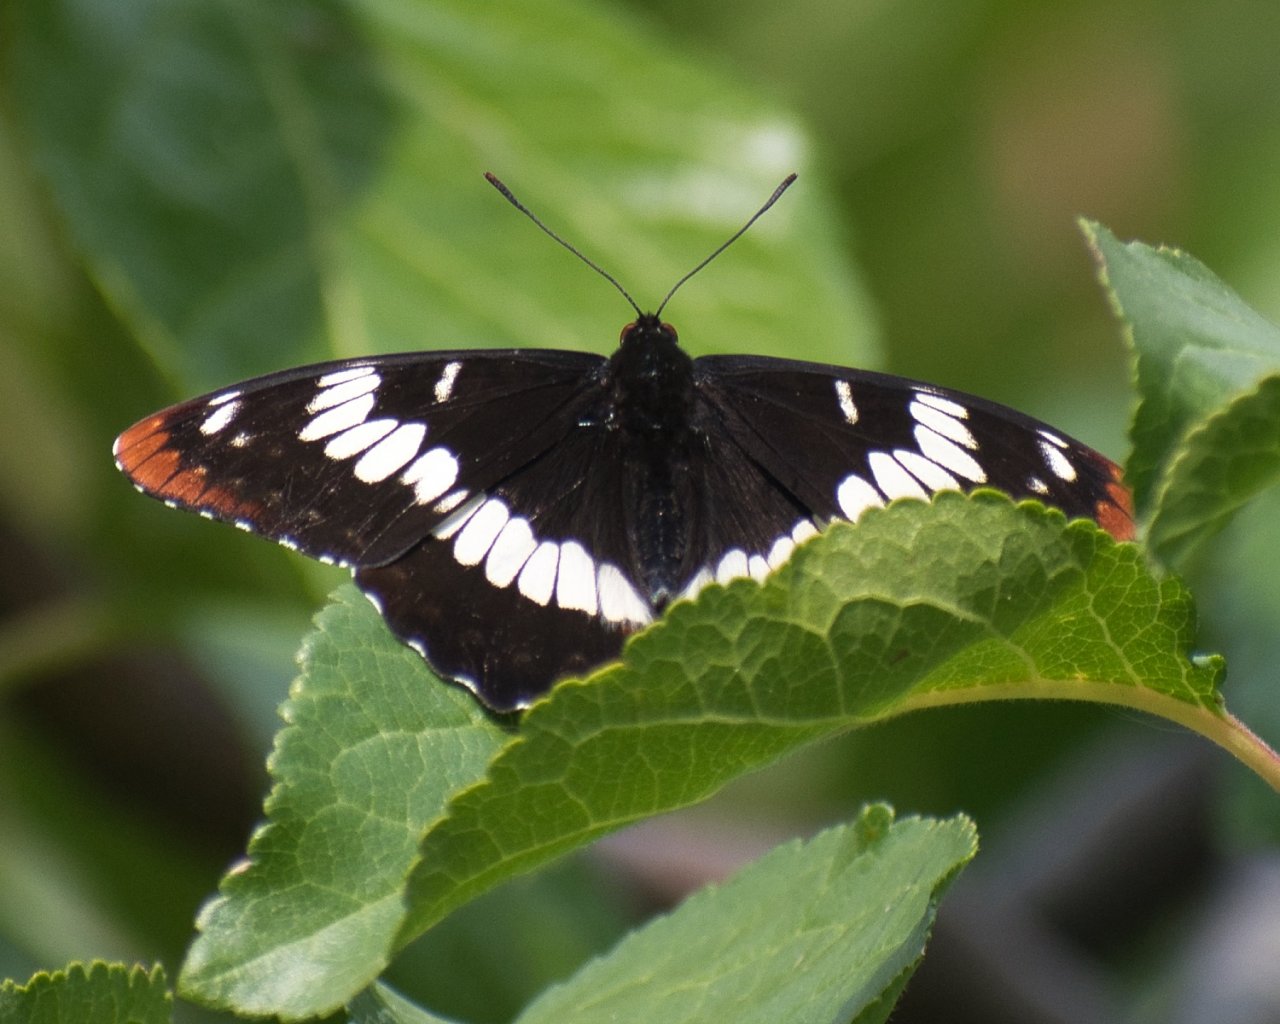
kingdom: Animalia
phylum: Arthropoda
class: Insecta
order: Lepidoptera
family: Nymphalidae
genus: Limenitis
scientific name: Limenitis lorquini
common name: Lorquin's Admiral
